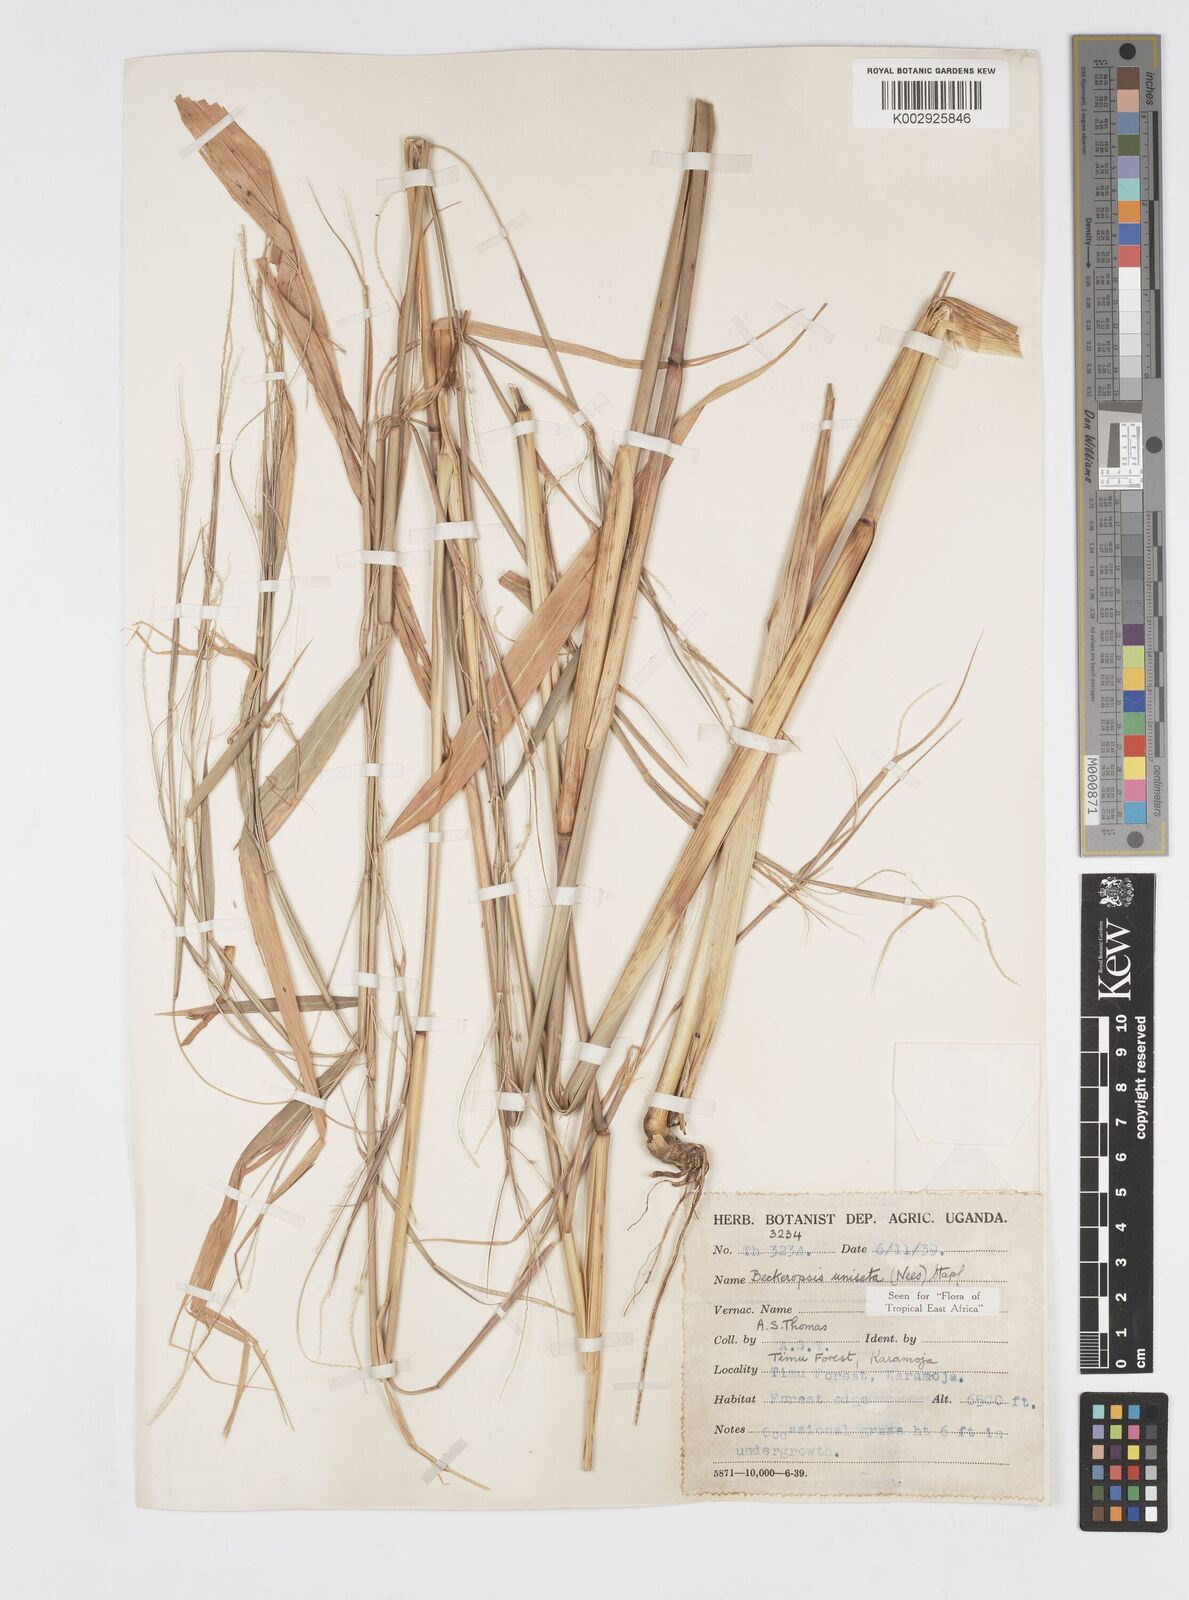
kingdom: Plantae
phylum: Tracheophyta
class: Liliopsida
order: Poales
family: Poaceae
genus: Cenchrus
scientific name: Cenchrus unisetus
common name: Natal grass
